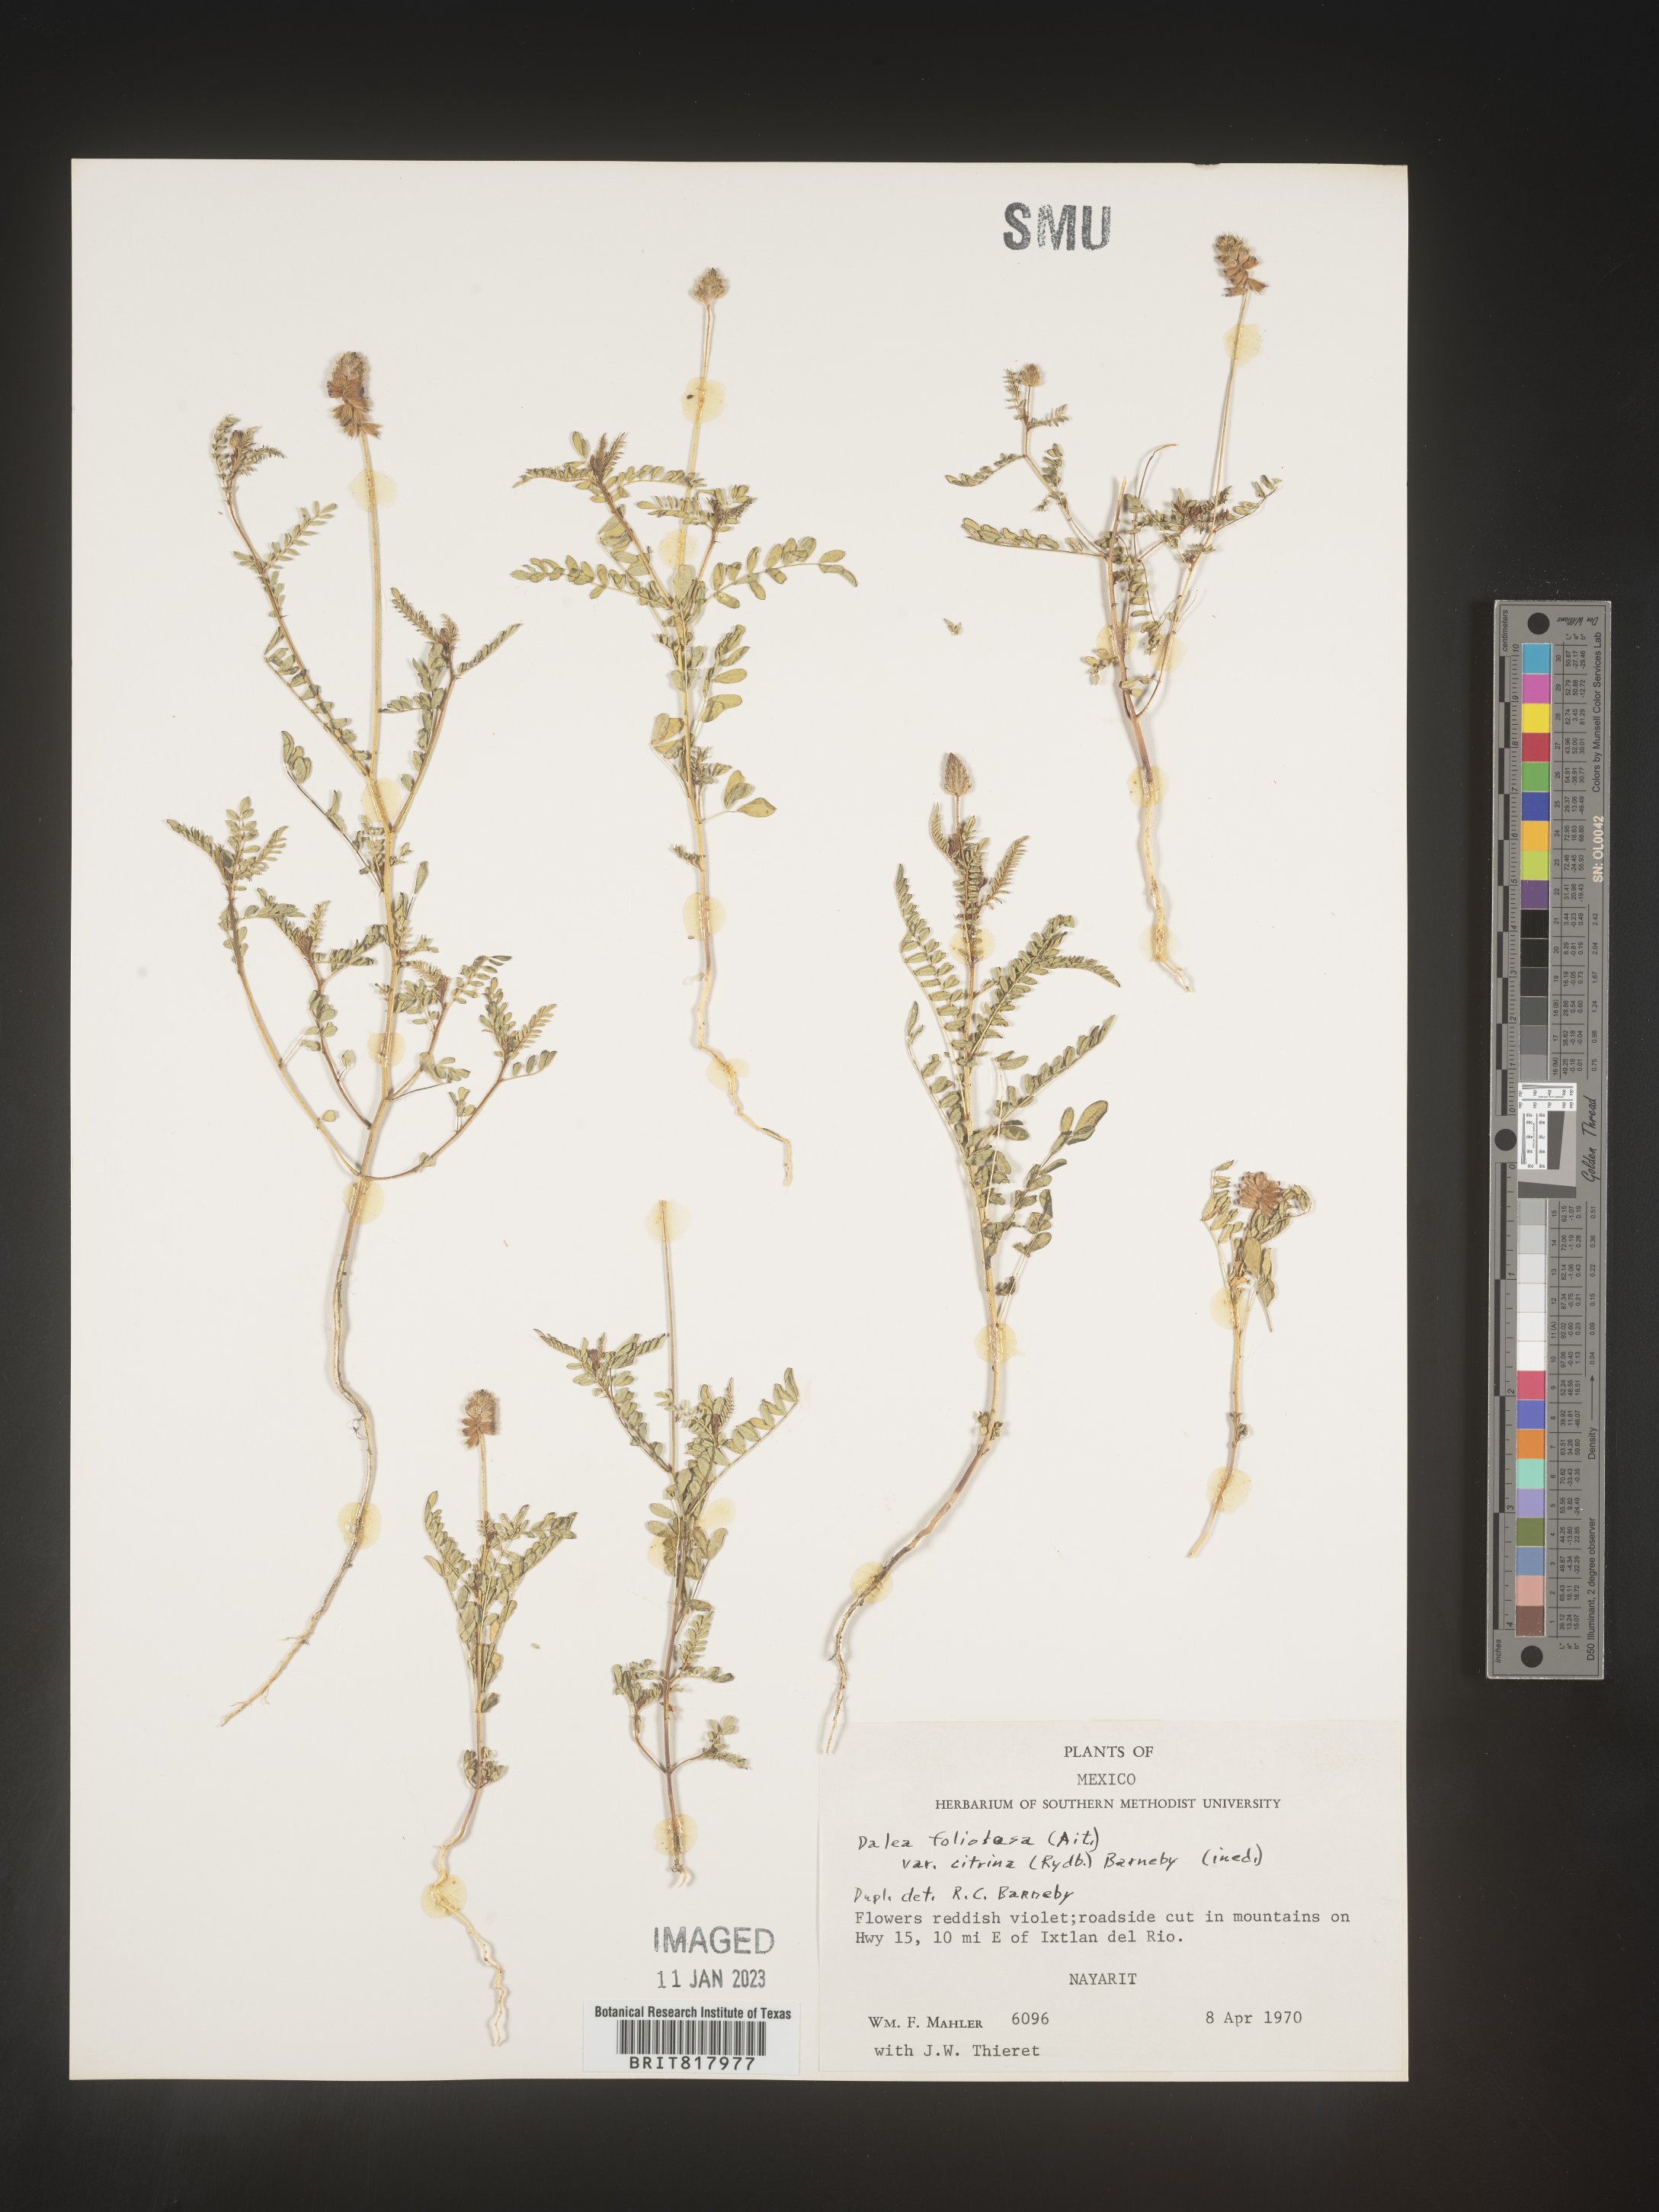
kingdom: Plantae
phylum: Tracheophyta
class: Magnoliopsida
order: Fabales
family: Fabaceae
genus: Dalea
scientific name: Dalea
